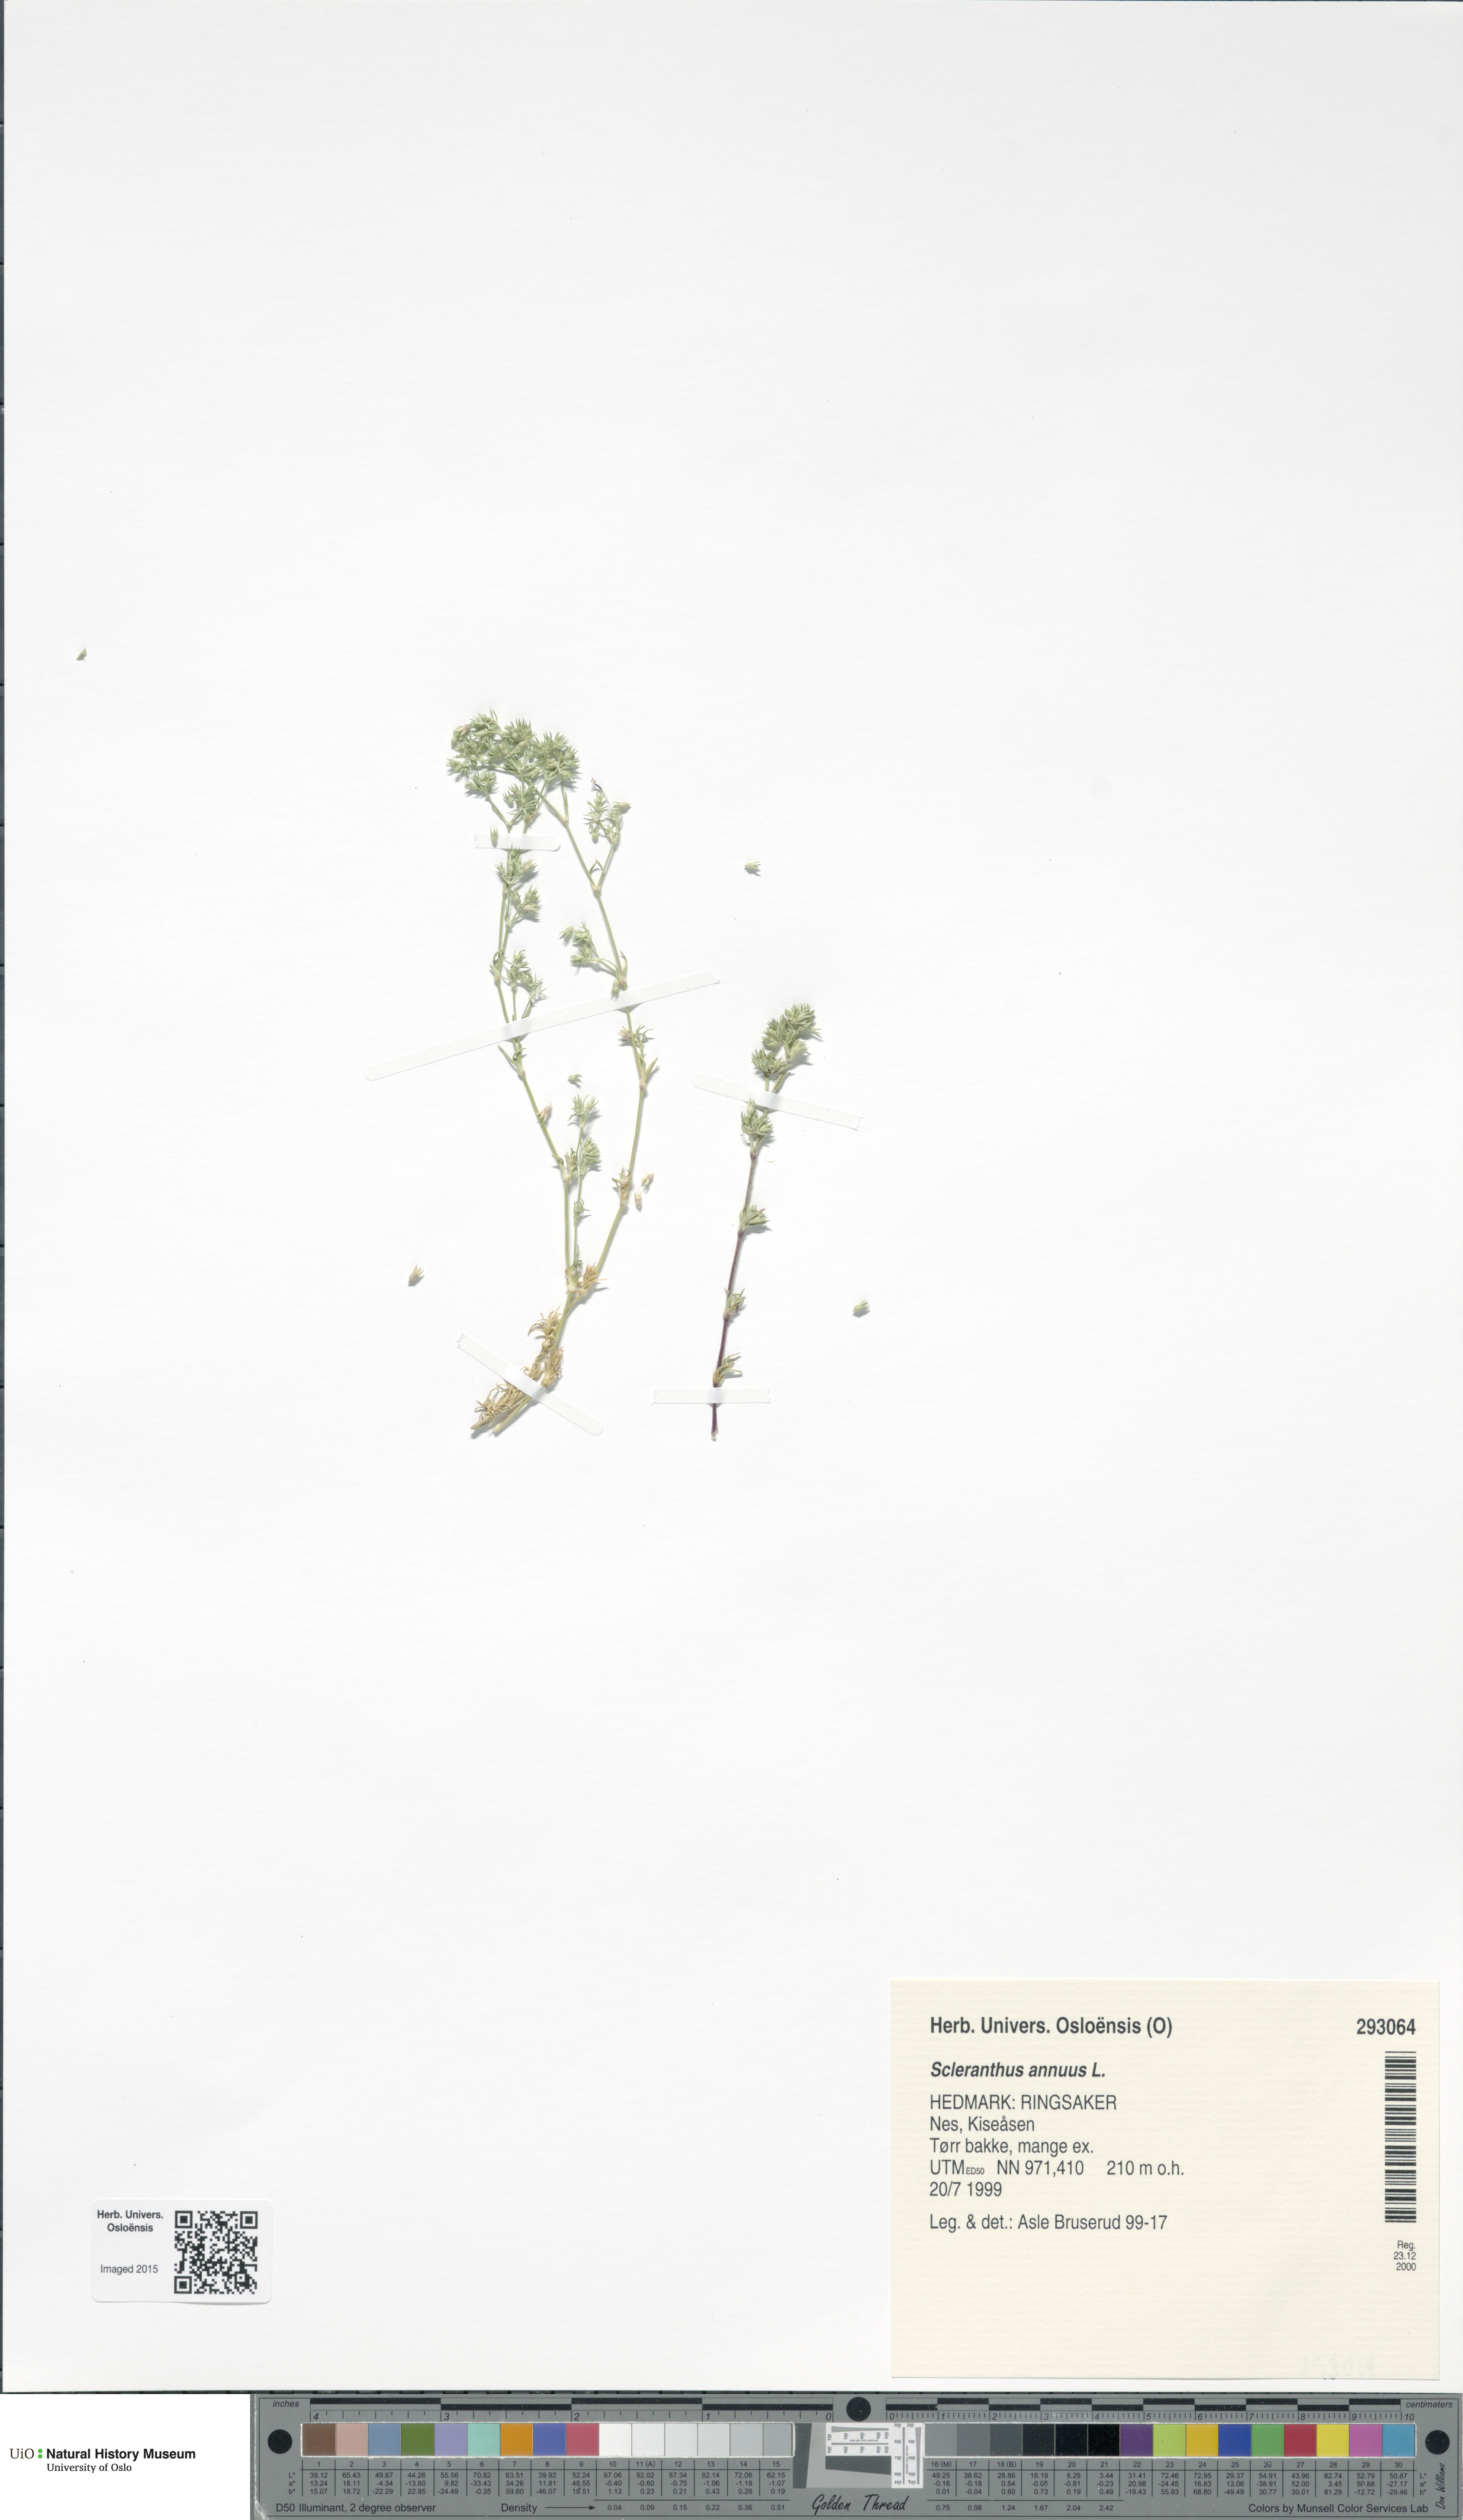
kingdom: Plantae
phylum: Tracheophyta
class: Magnoliopsida
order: Caryophyllales
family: Caryophyllaceae
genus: Scleranthus
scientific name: Scleranthus annuus
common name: Annual knawel
